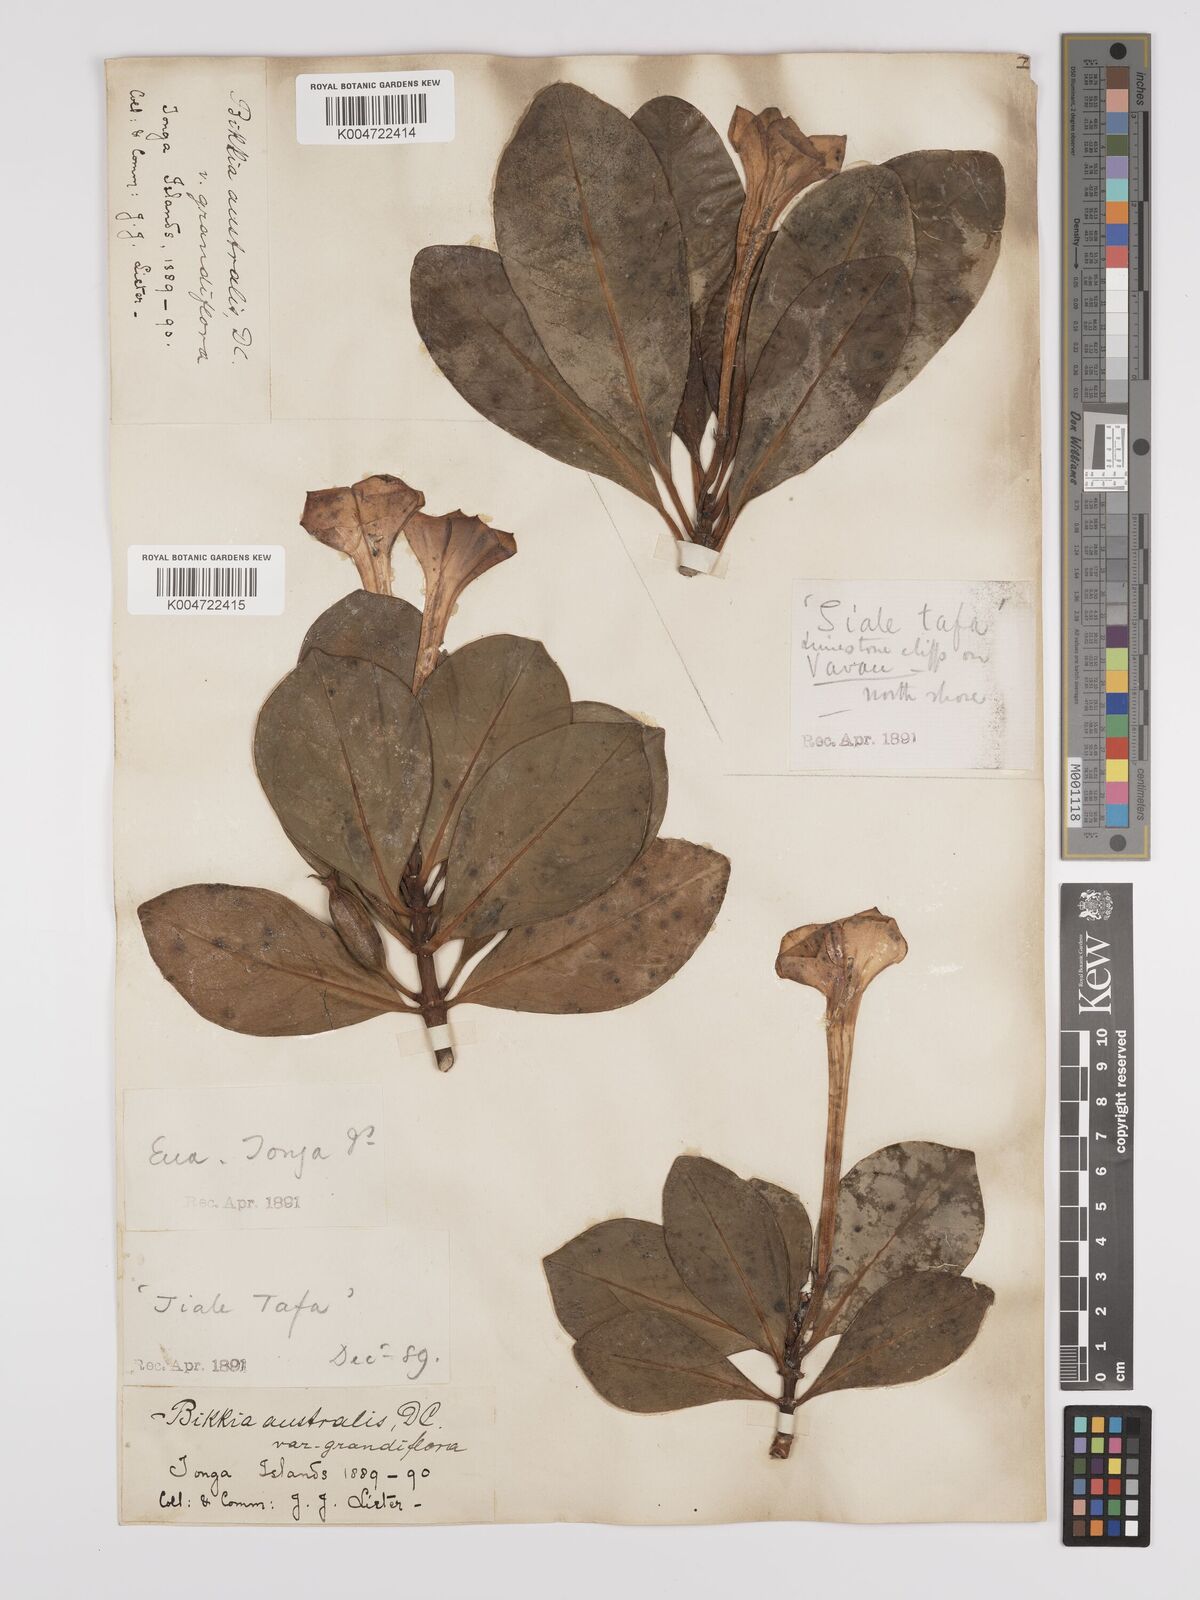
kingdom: Plantae
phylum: Tracheophyta
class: Magnoliopsida
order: Gentianales
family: Rubiaceae
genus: Bikkia
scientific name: Bikkia
